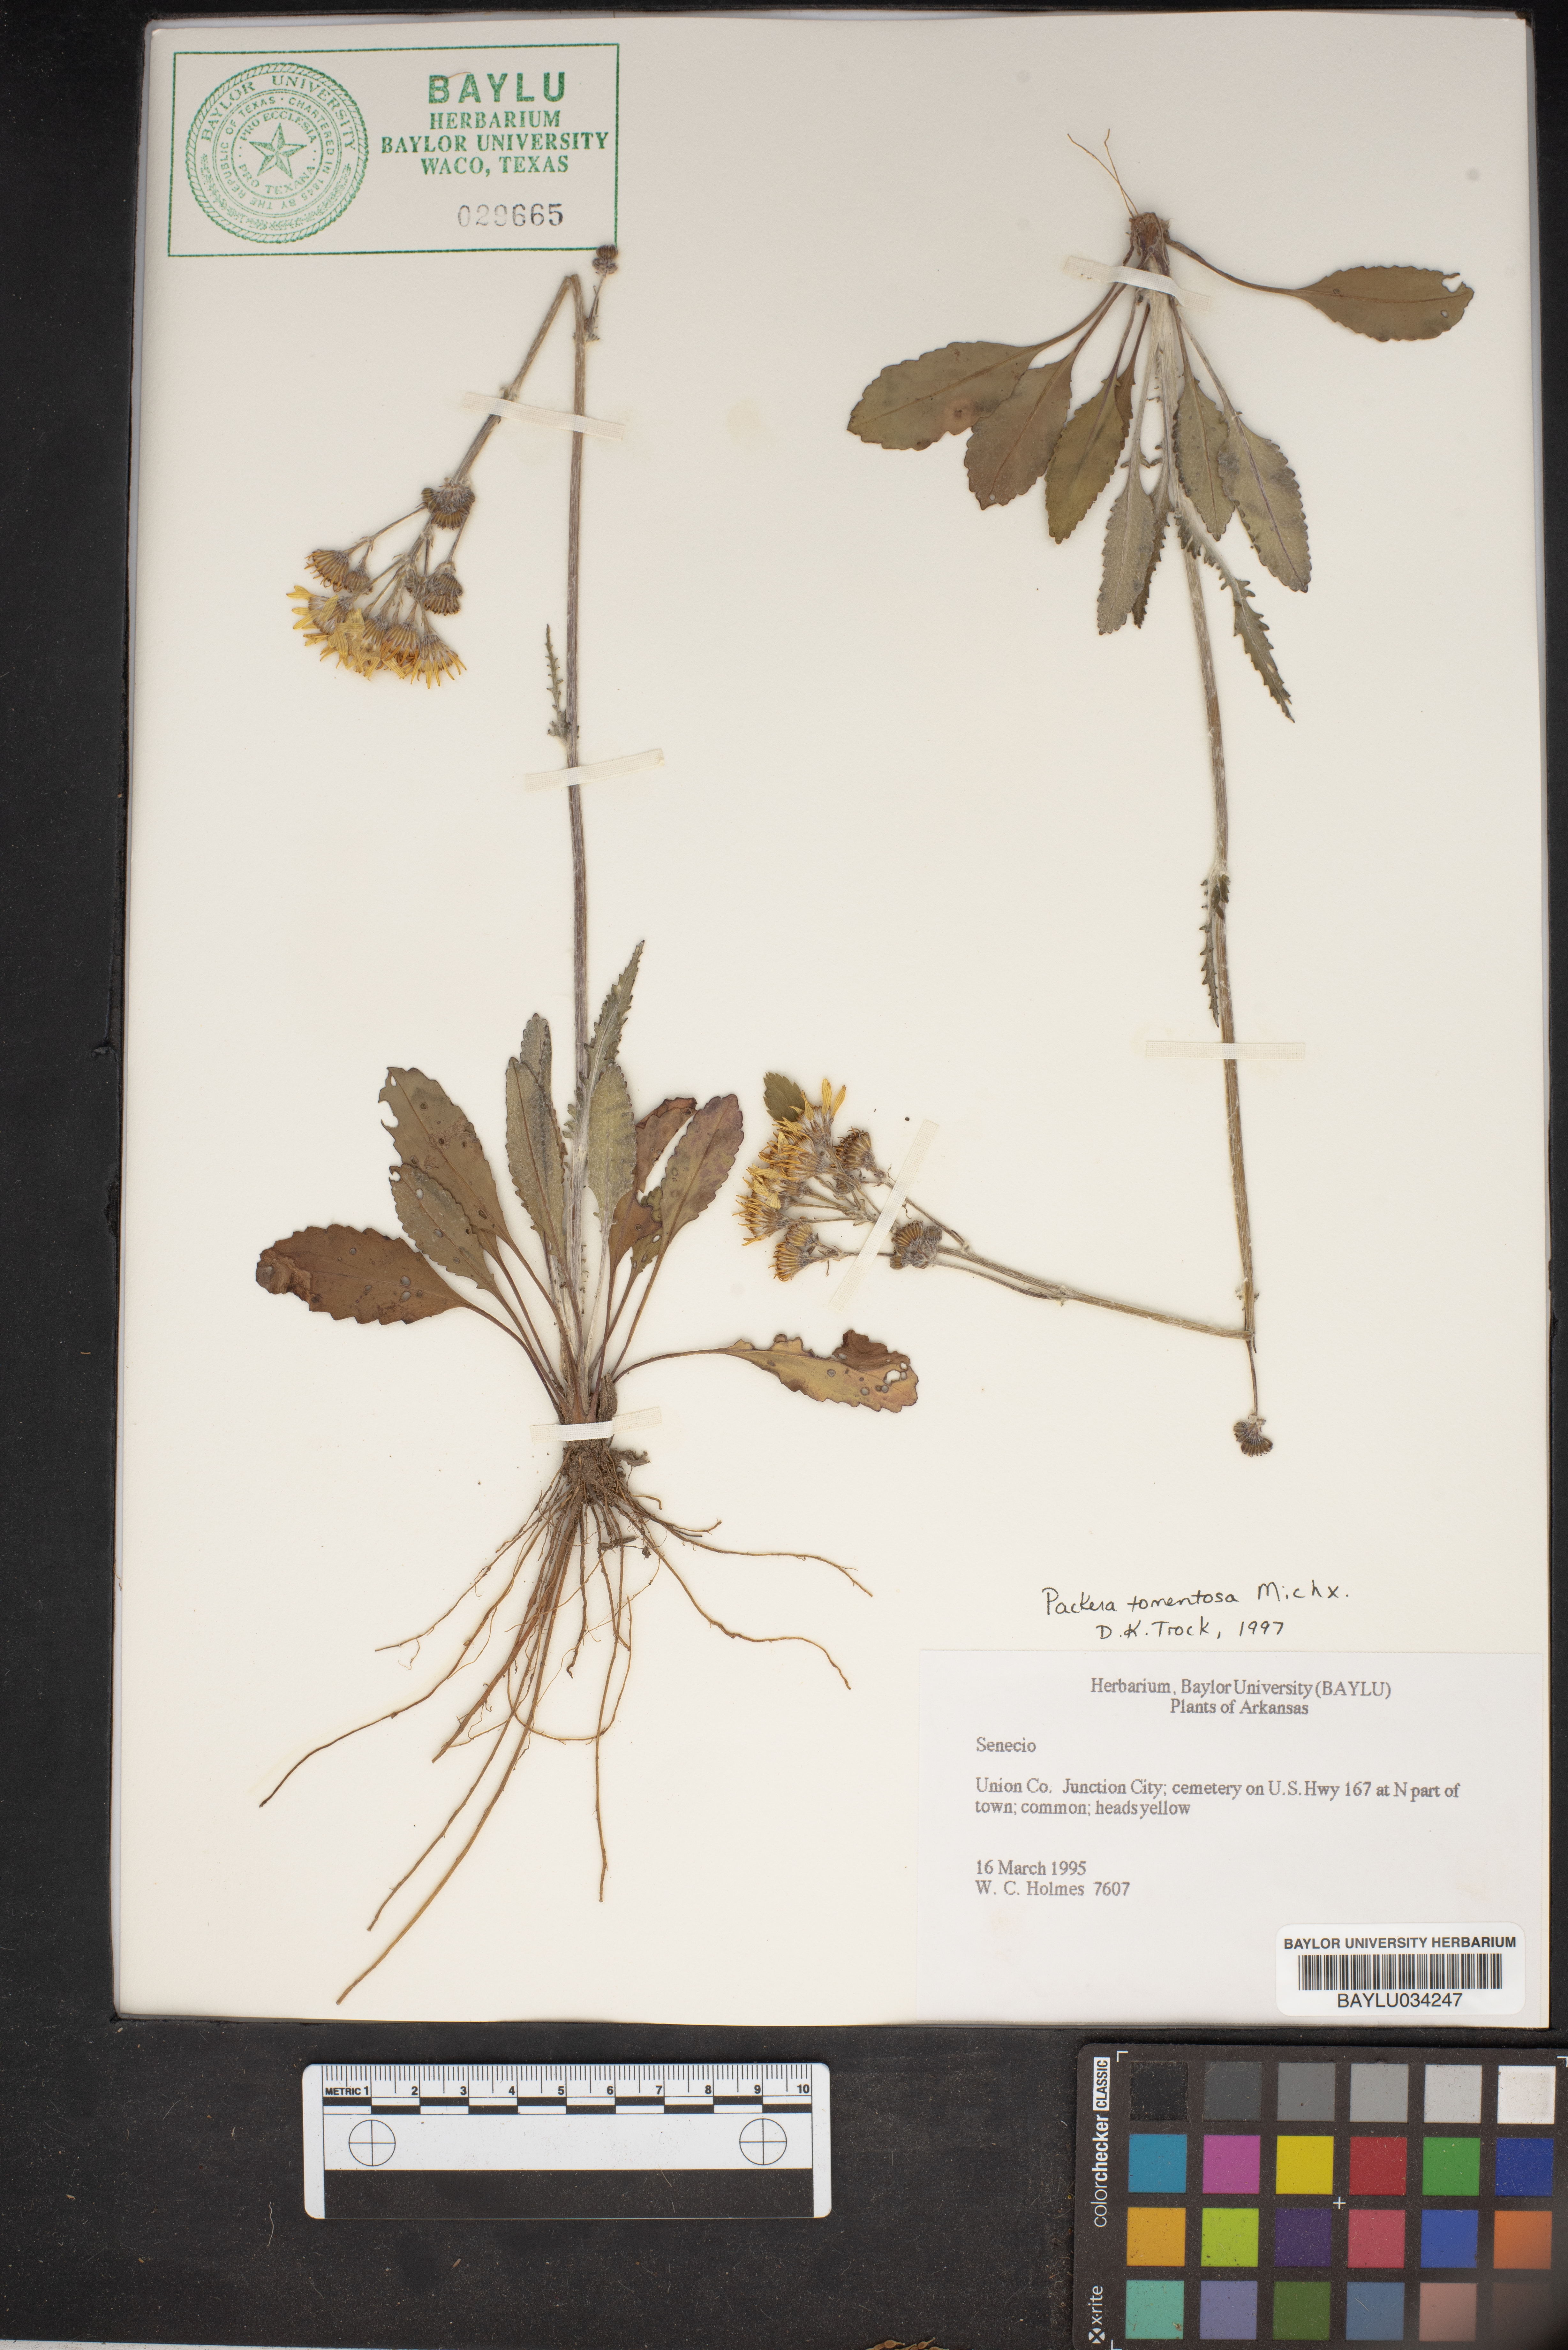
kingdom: Plantae
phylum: Tracheophyta
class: Magnoliopsida
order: Asterales
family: Asteraceae
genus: Senecio
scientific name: Senecio
